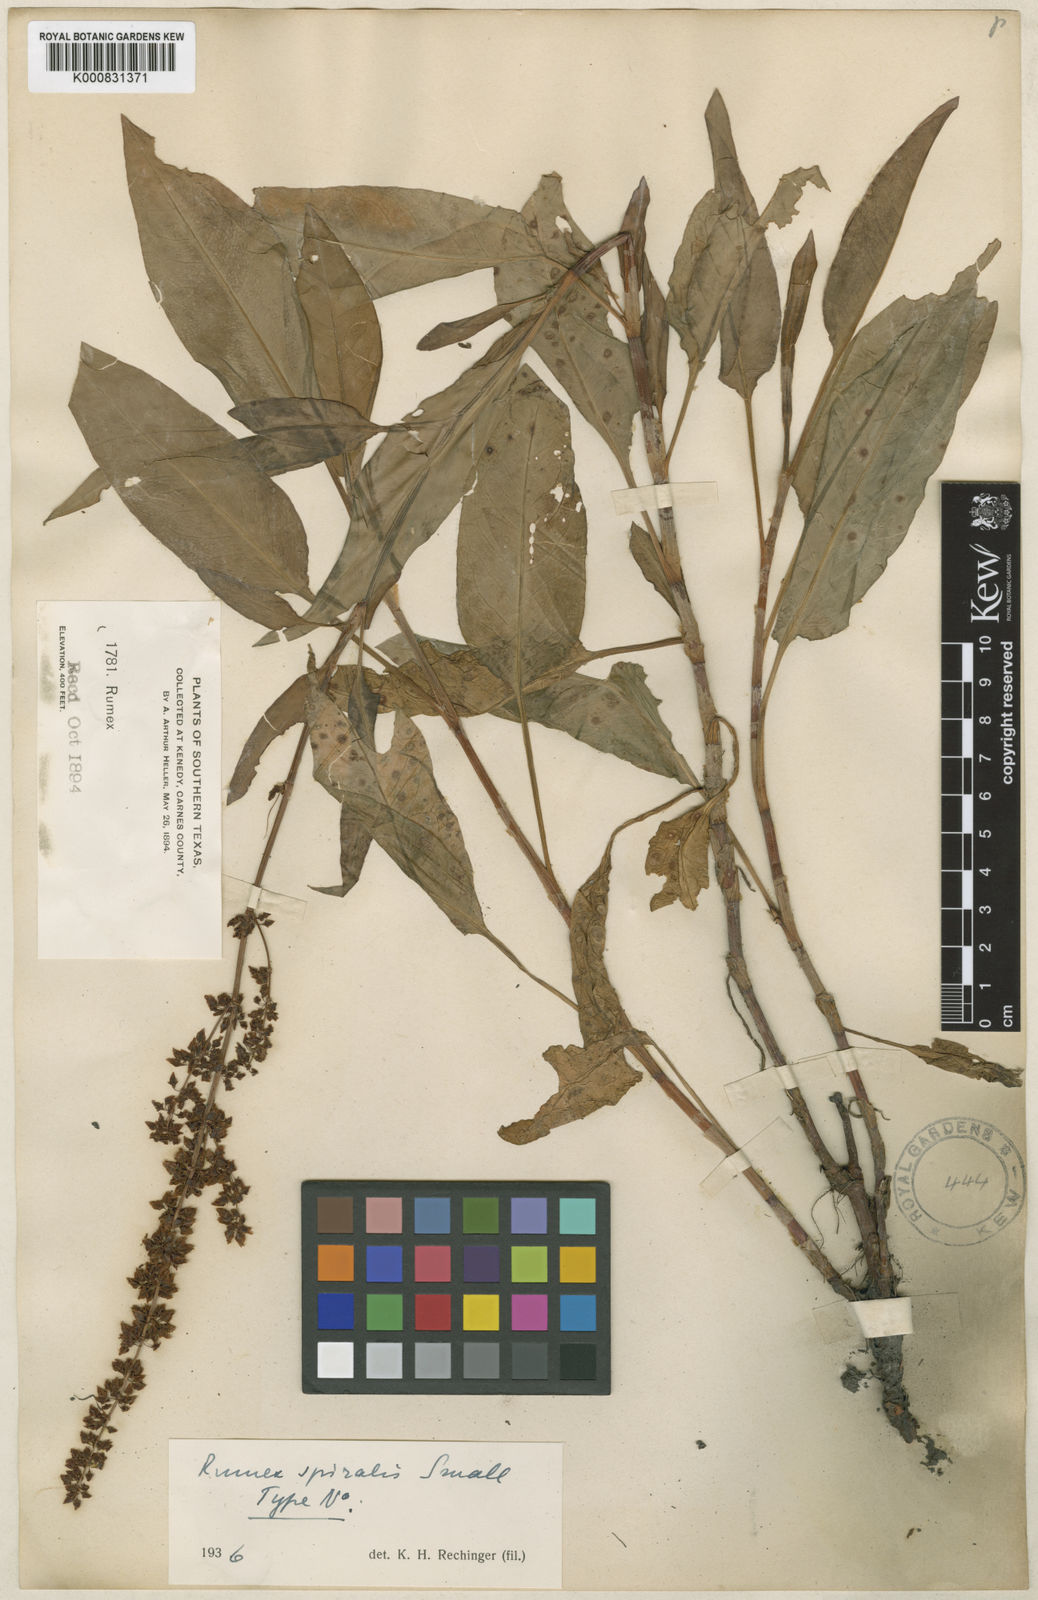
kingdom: Plantae
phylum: Tracheophyta
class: Magnoliopsida
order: Caryophyllales
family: Polygonaceae
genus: Rumex
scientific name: Rumex spiralis
